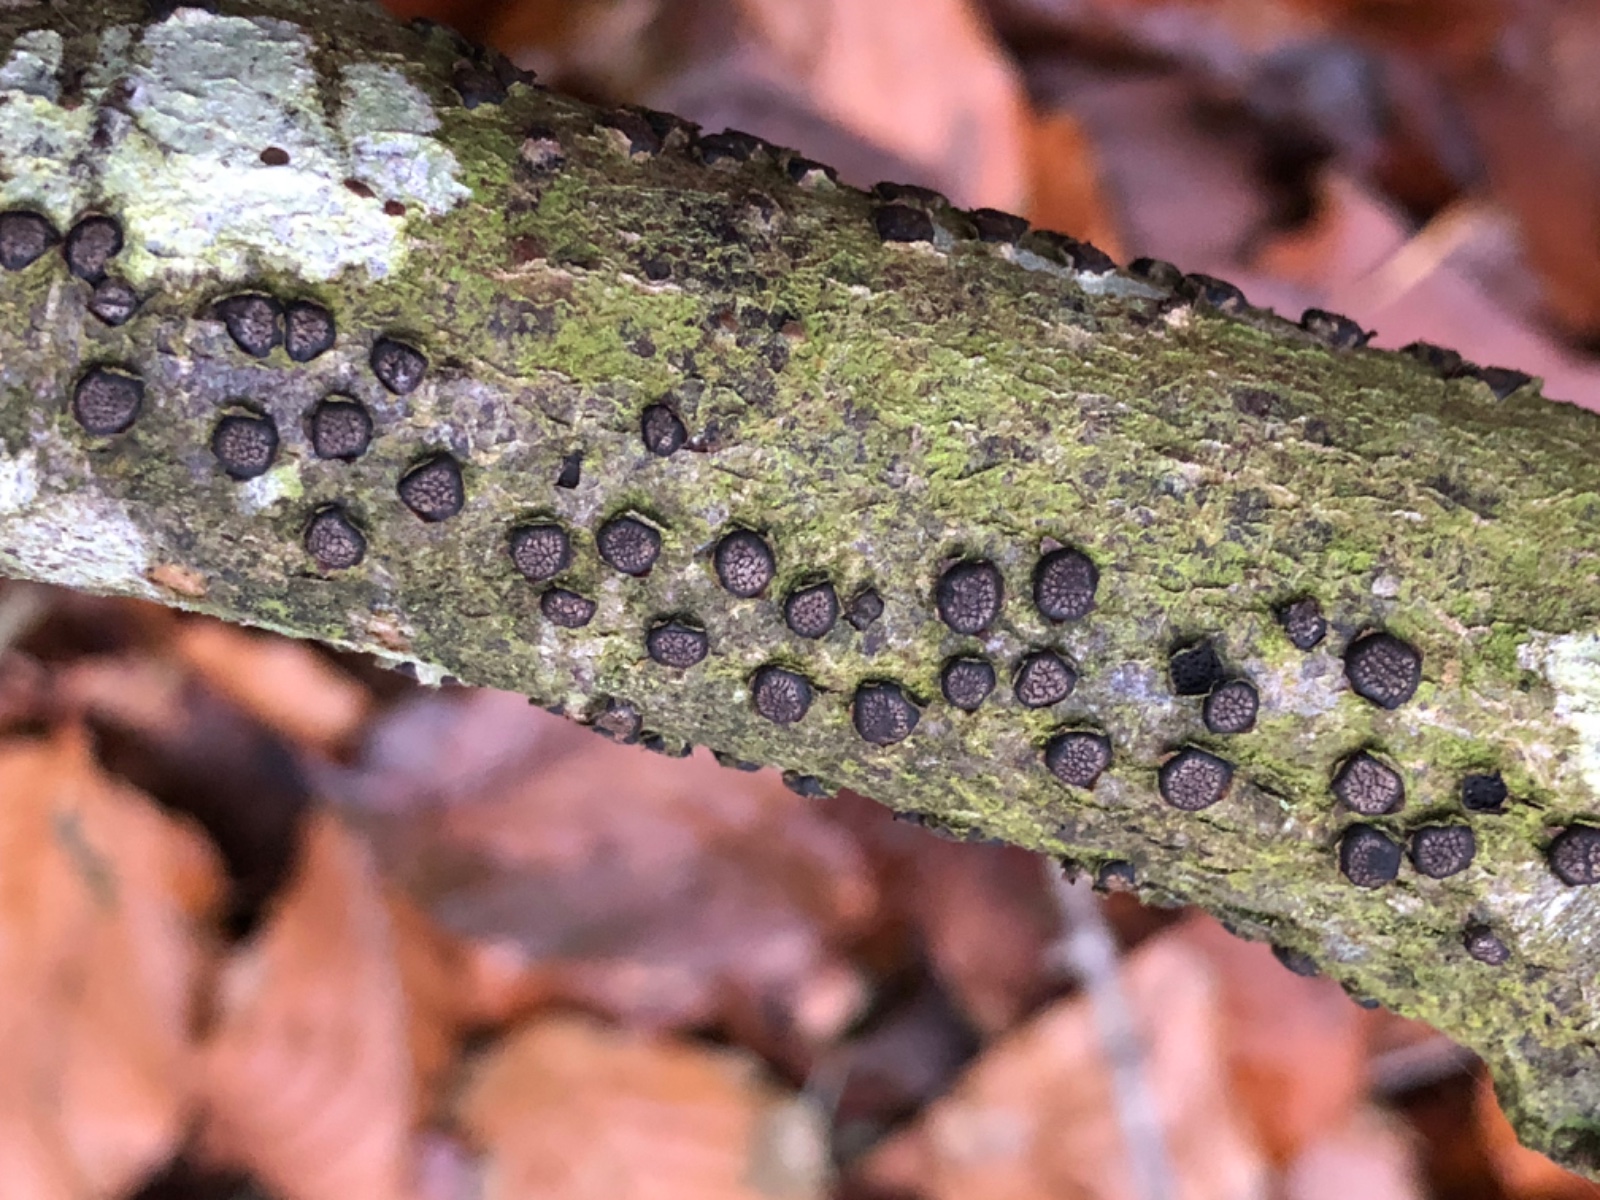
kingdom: Fungi
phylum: Ascomycota
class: Sordariomycetes
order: Xylariales
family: Diatrypaceae
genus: Diatrype
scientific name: Diatrype disciformis
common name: kant-kulskorpe
